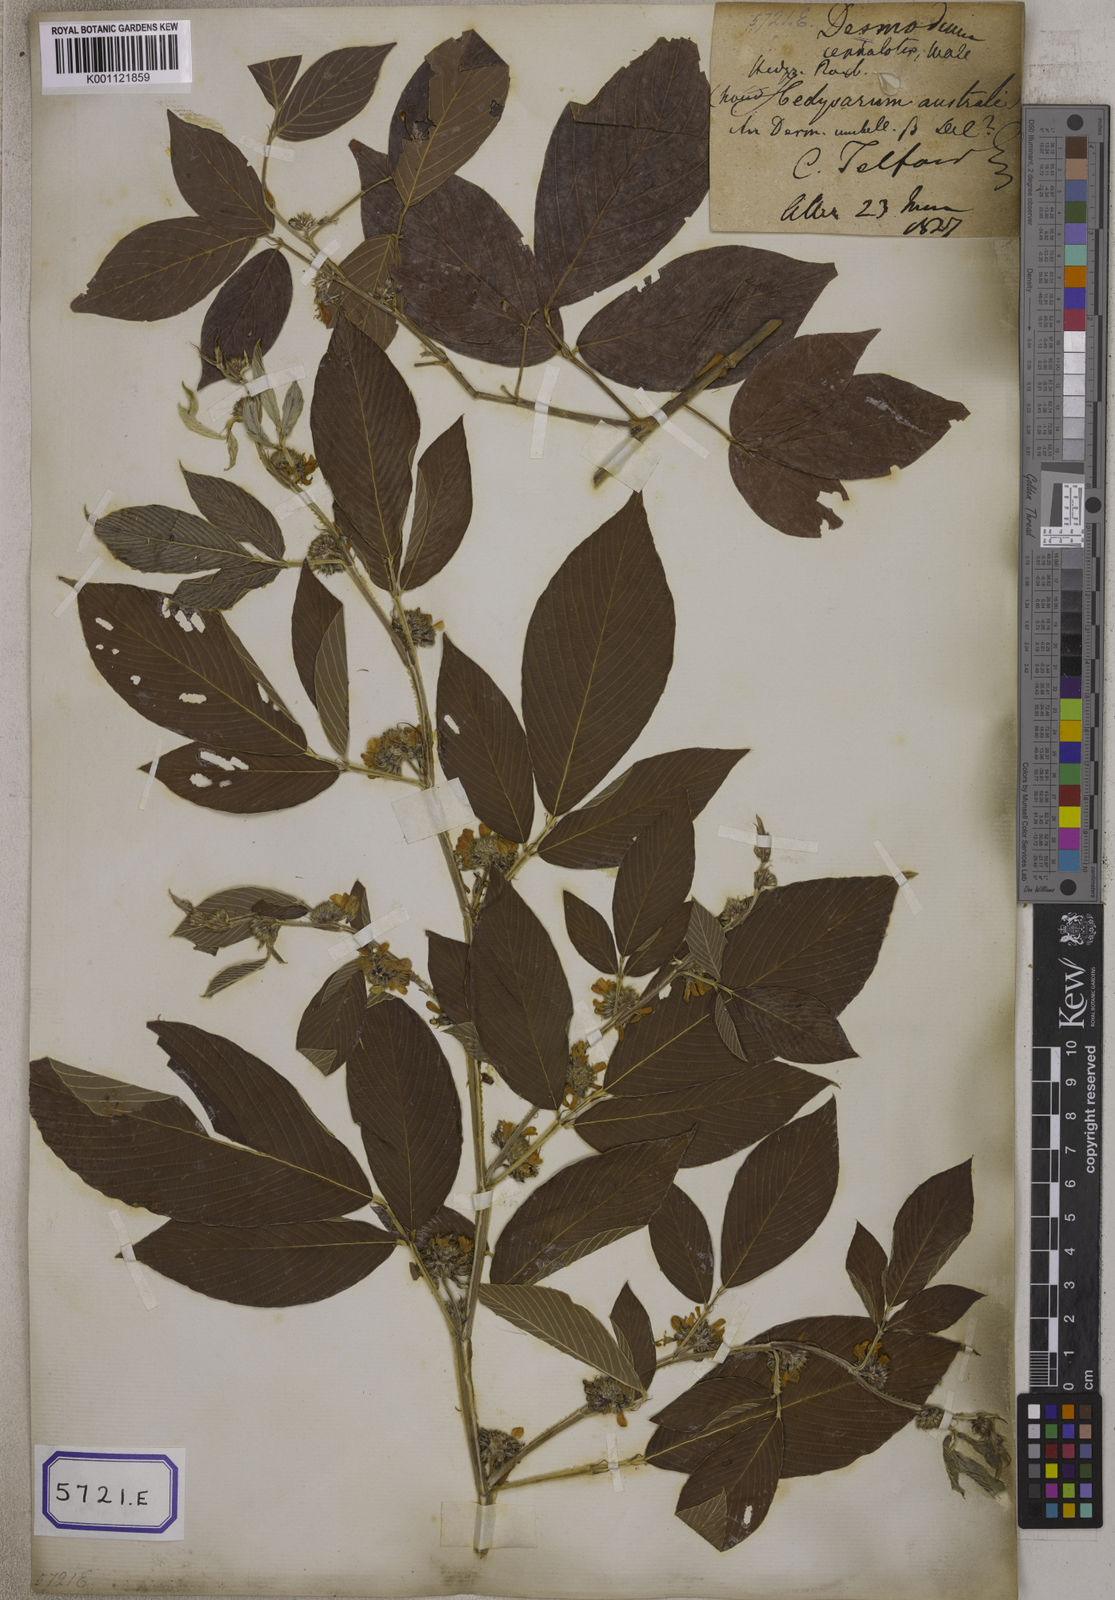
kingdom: Plantae
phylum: Tracheophyta
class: Magnoliopsida
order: Fabales
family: Fabaceae
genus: Desmodium
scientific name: Desmodium
